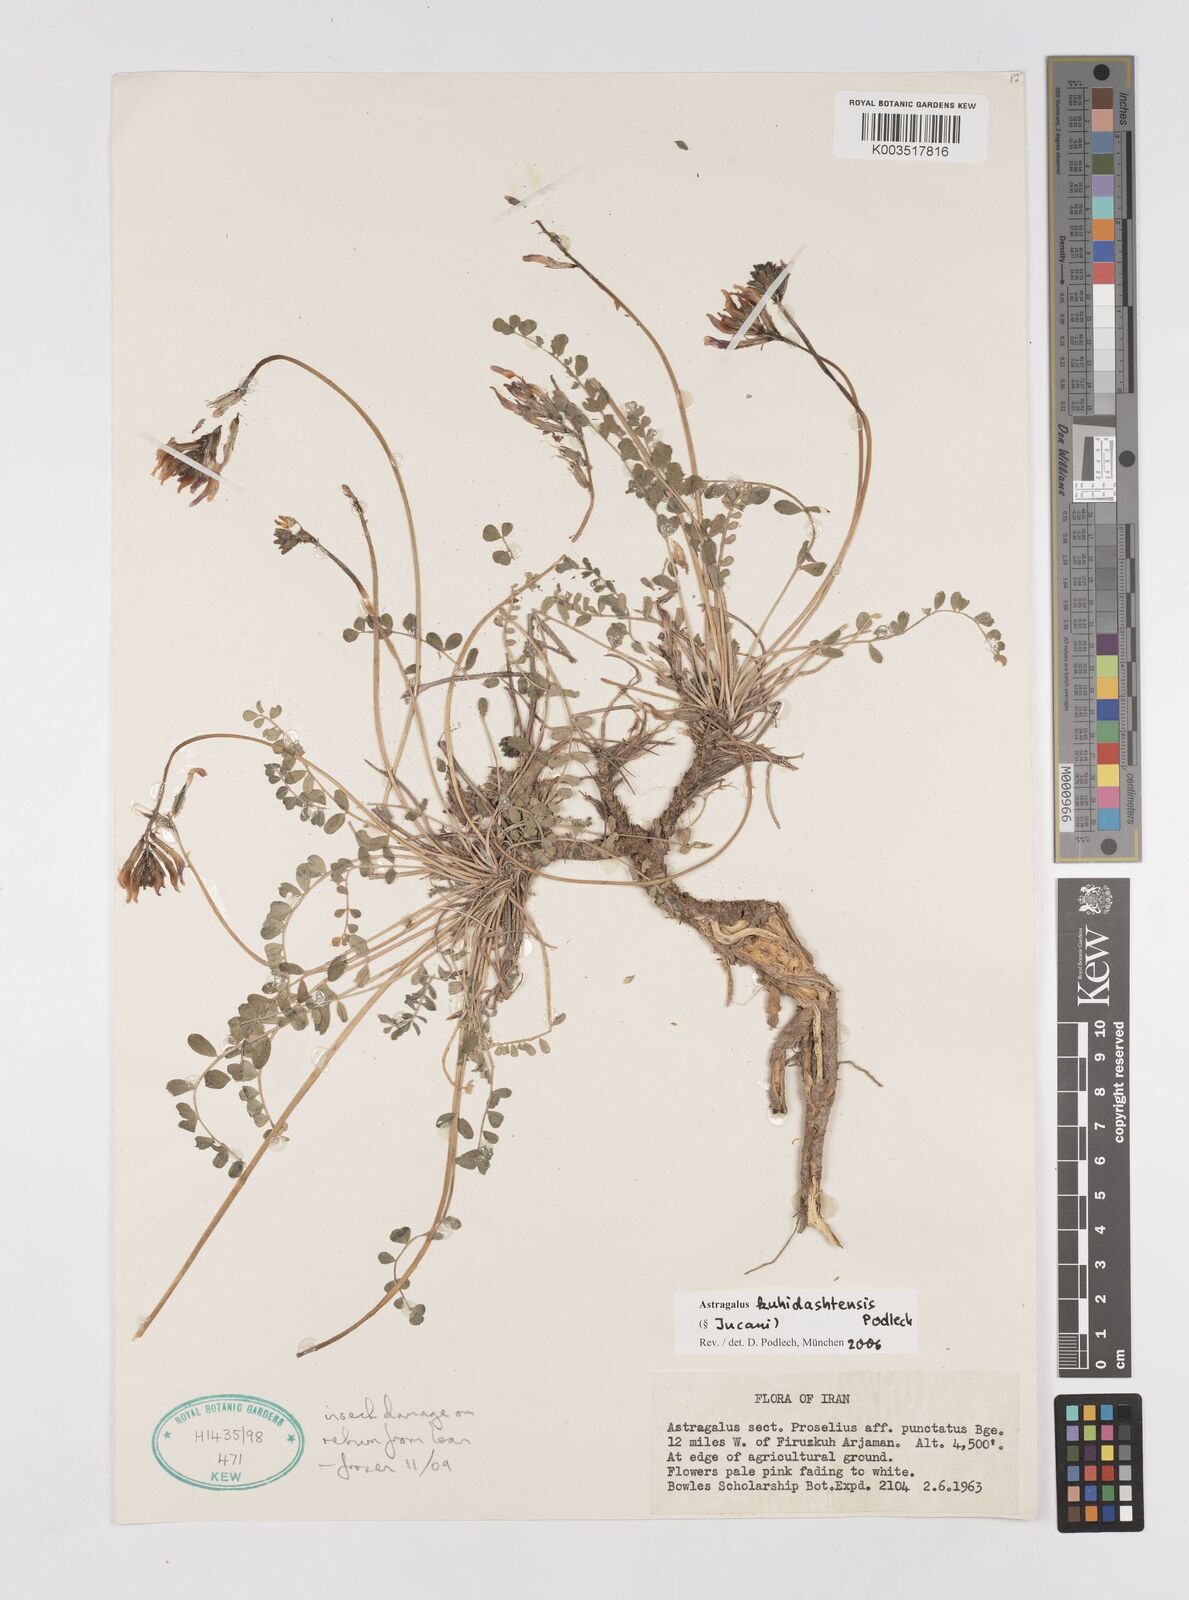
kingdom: Plantae
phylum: Tracheophyta
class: Magnoliopsida
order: Fabales
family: Fabaceae
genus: Astragalus
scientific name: Astragalus kuhidashtehensis
